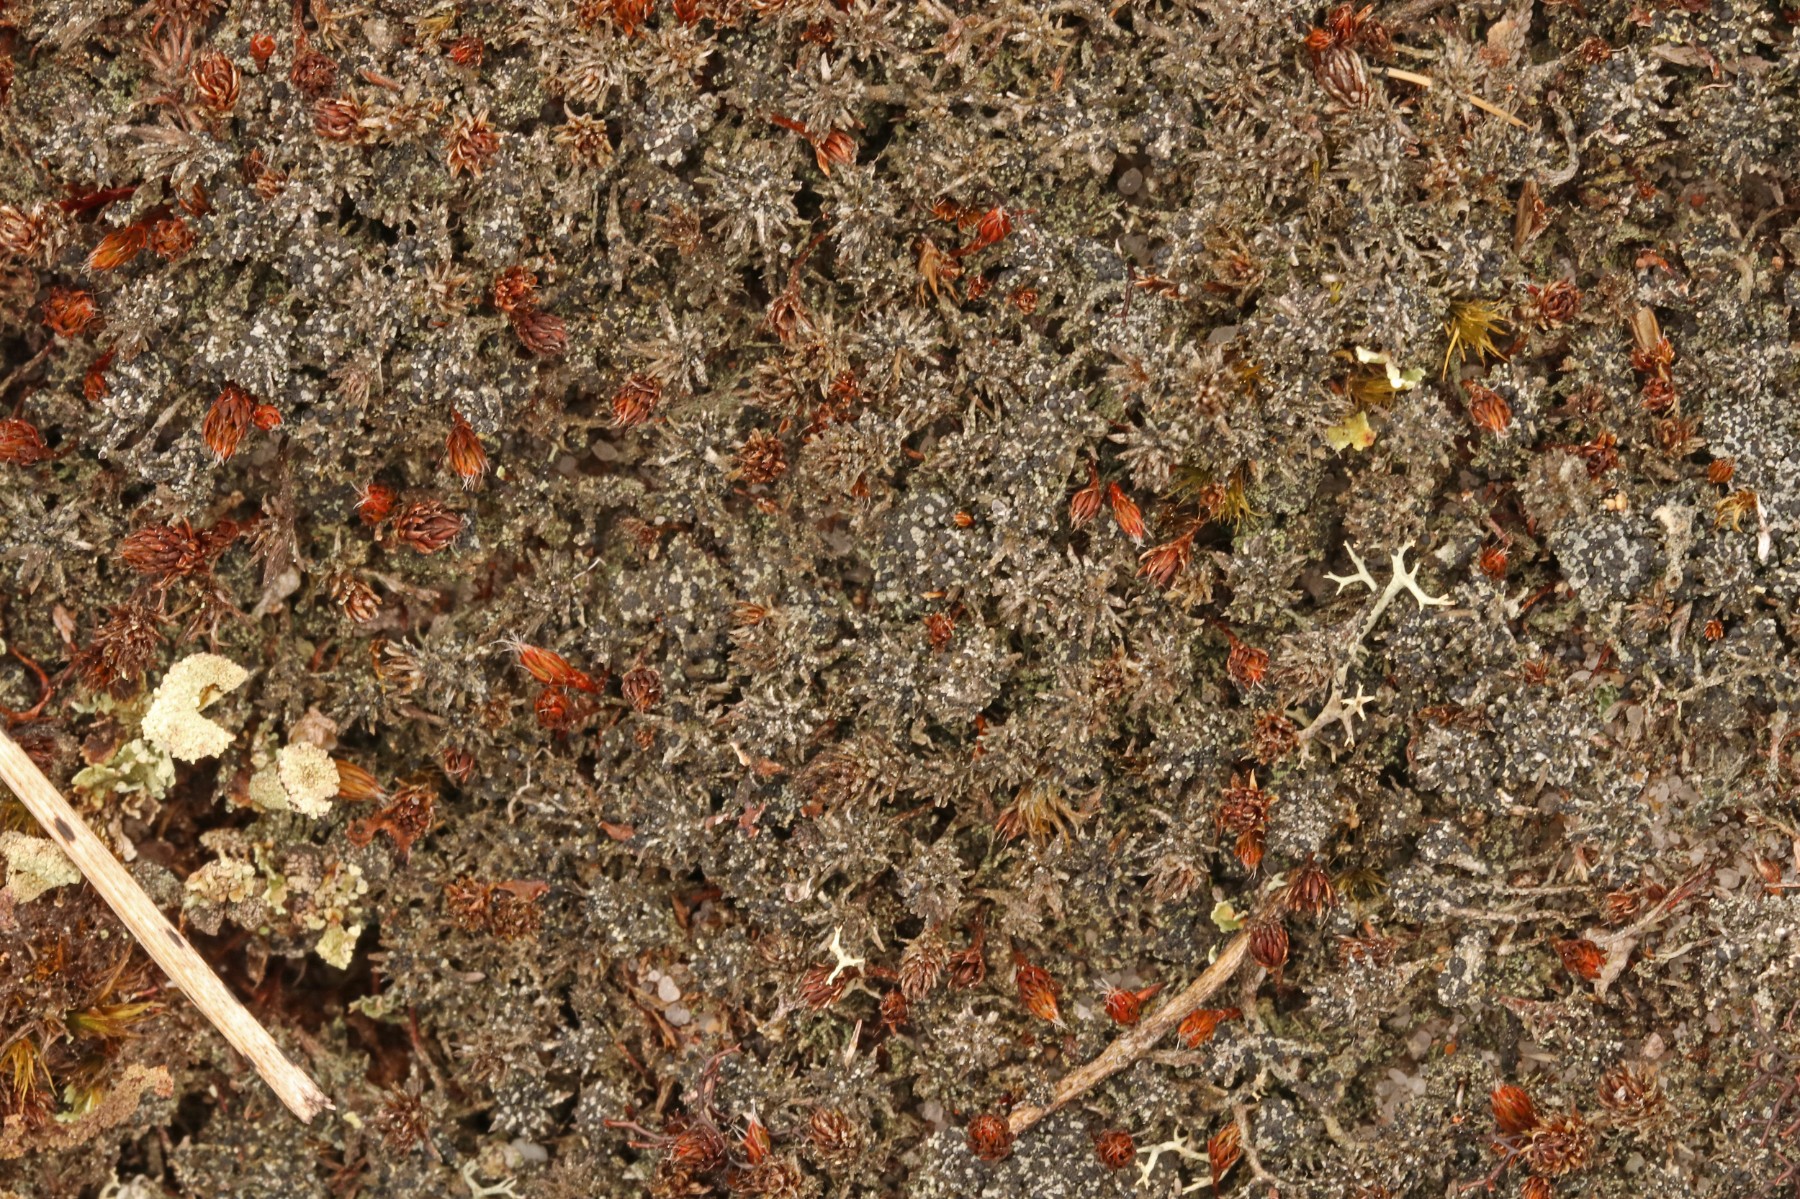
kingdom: Fungi
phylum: Ascomycota
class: Lecanoromycetes
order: Lecanorales
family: Byssolomataceae
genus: Micarea
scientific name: Micarea lignaria
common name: tørve-knaplav
